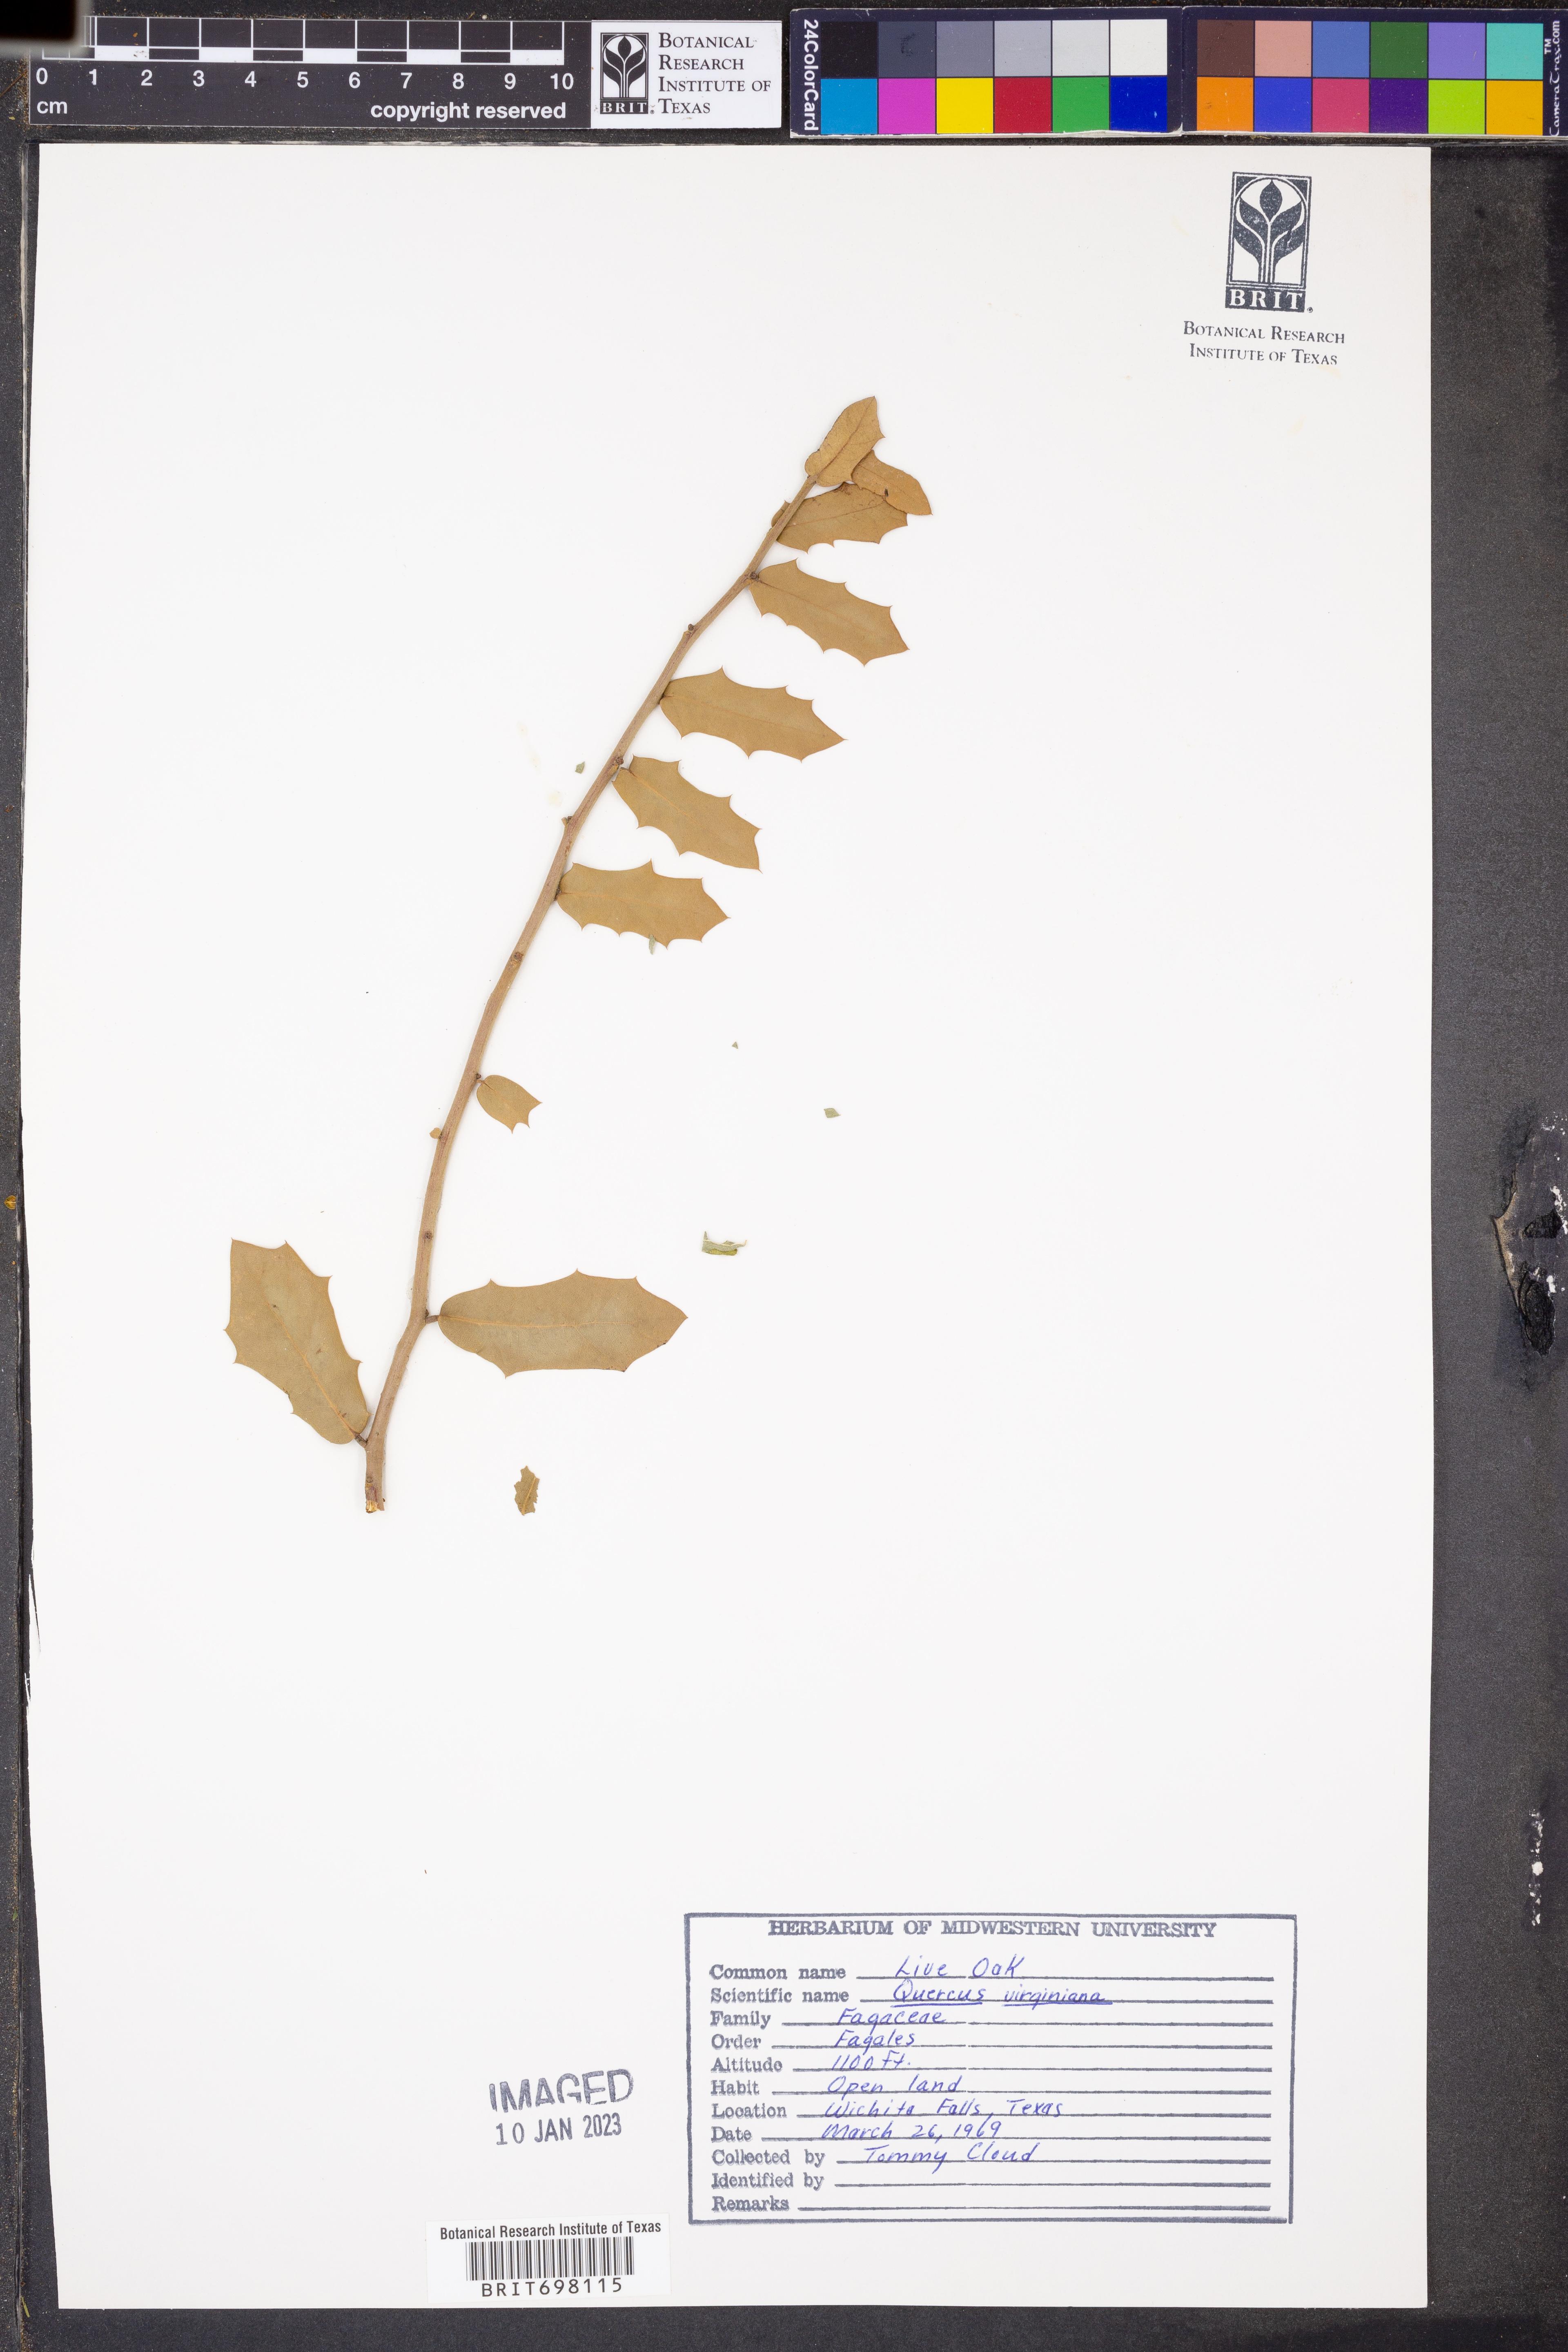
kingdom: Plantae
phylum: Tracheophyta
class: Magnoliopsida
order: Fagales
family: Fagaceae
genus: Quercus
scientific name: Quercus virginiana
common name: Southern live oak
